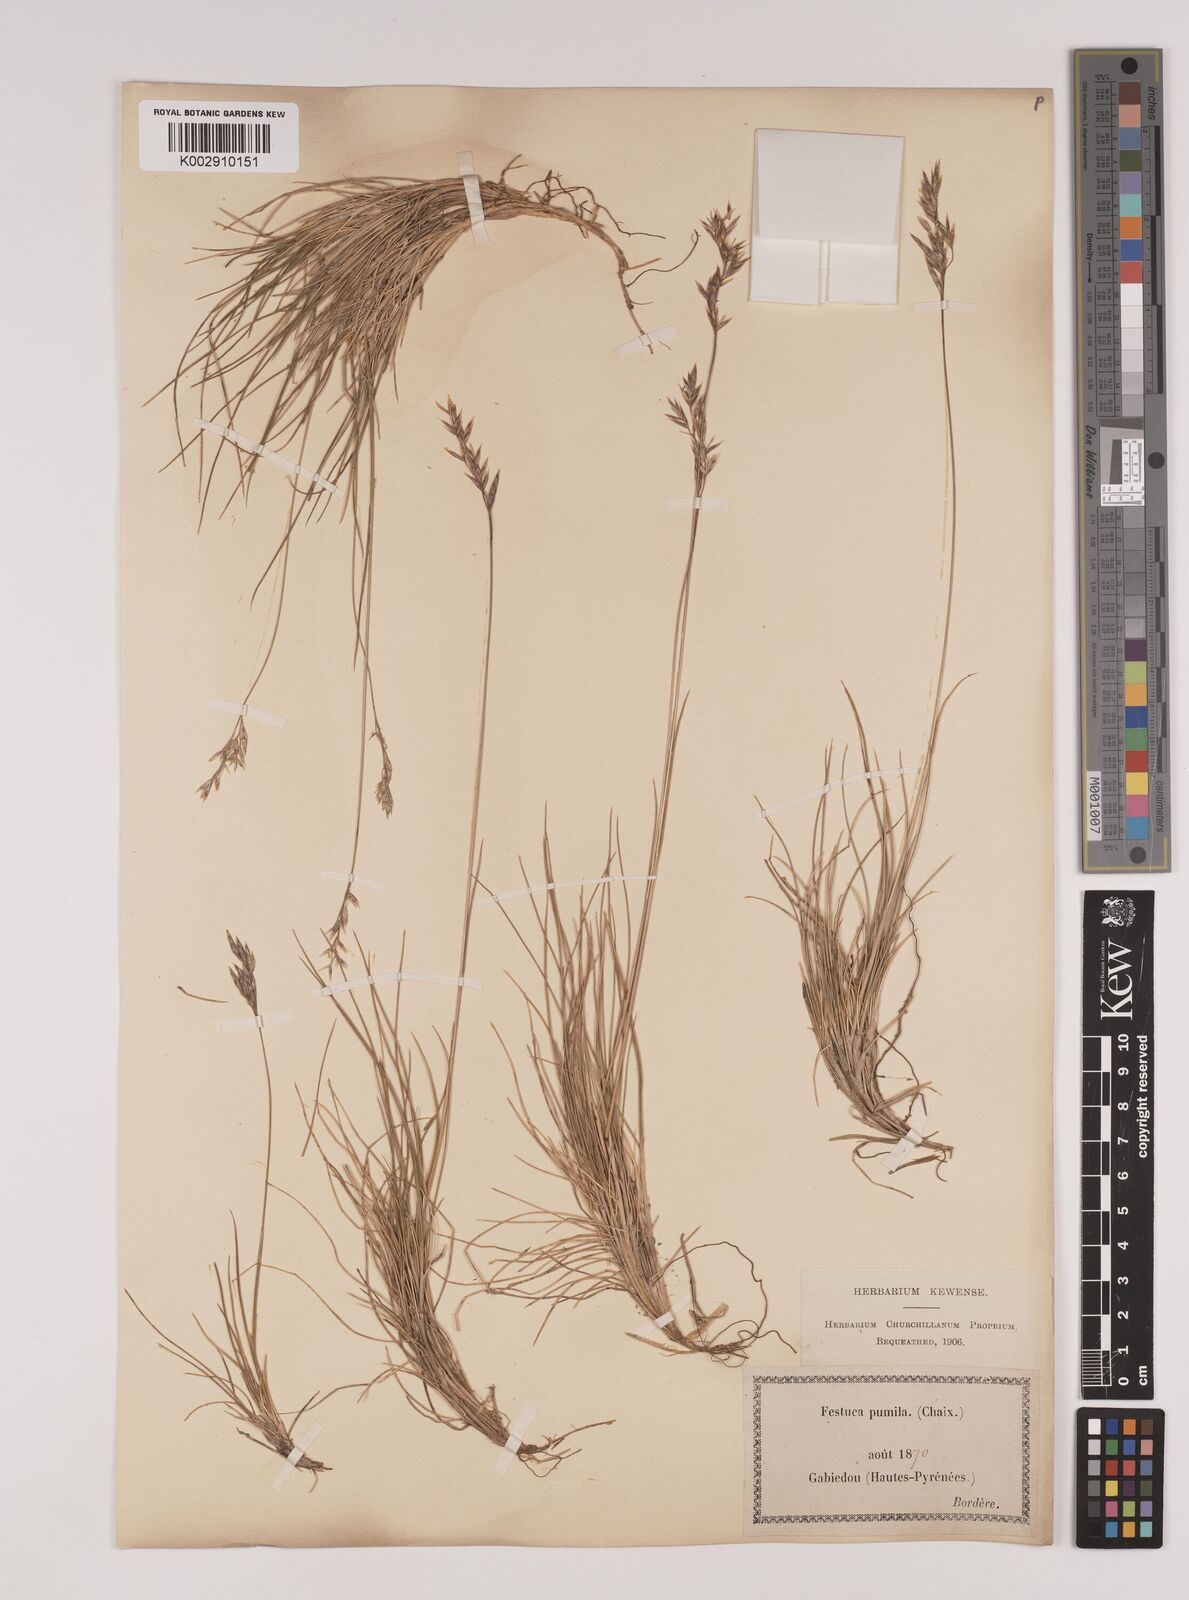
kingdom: Plantae
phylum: Tracheophyta
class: Liliopsida
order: Poales
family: Poaceae
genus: Festuca
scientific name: Festuca
